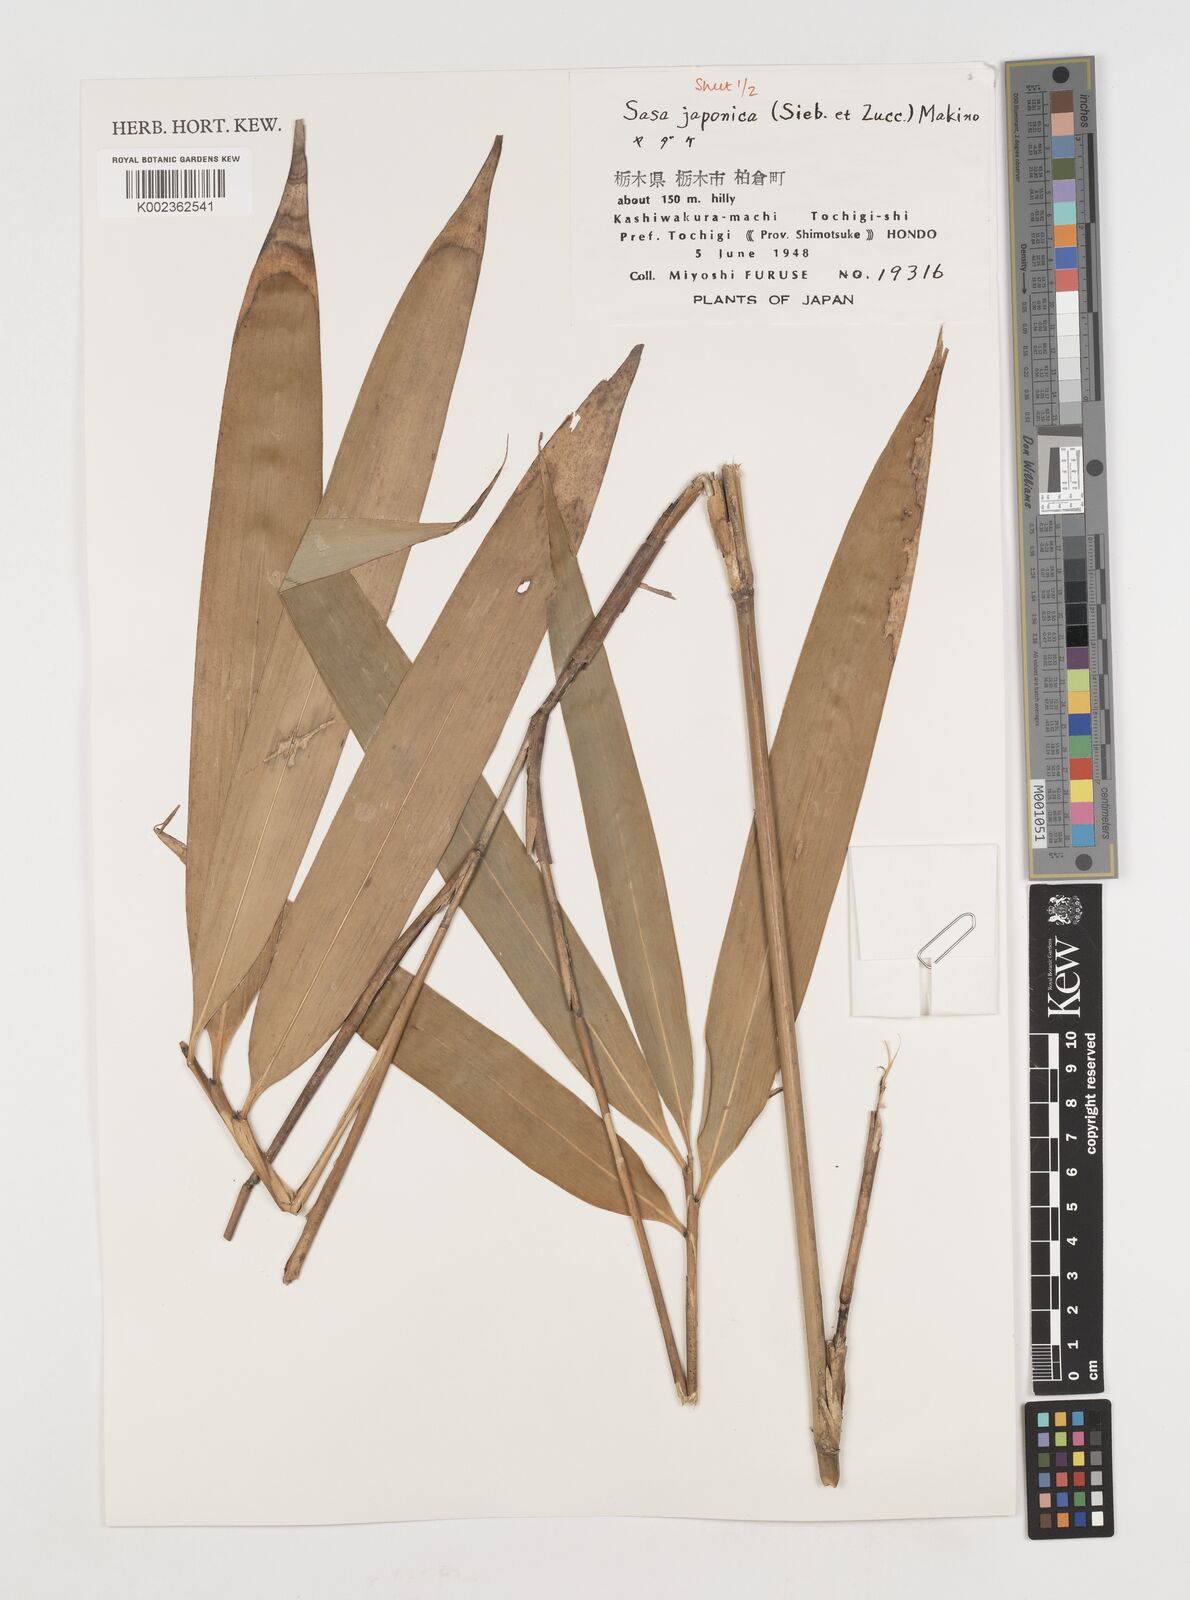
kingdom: Plantae
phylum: Tracheophyta
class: Liliopsida
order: Poales
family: Poaceae
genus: Pseudosasa
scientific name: Pseudosasa japonica
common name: Arrow bamboo
